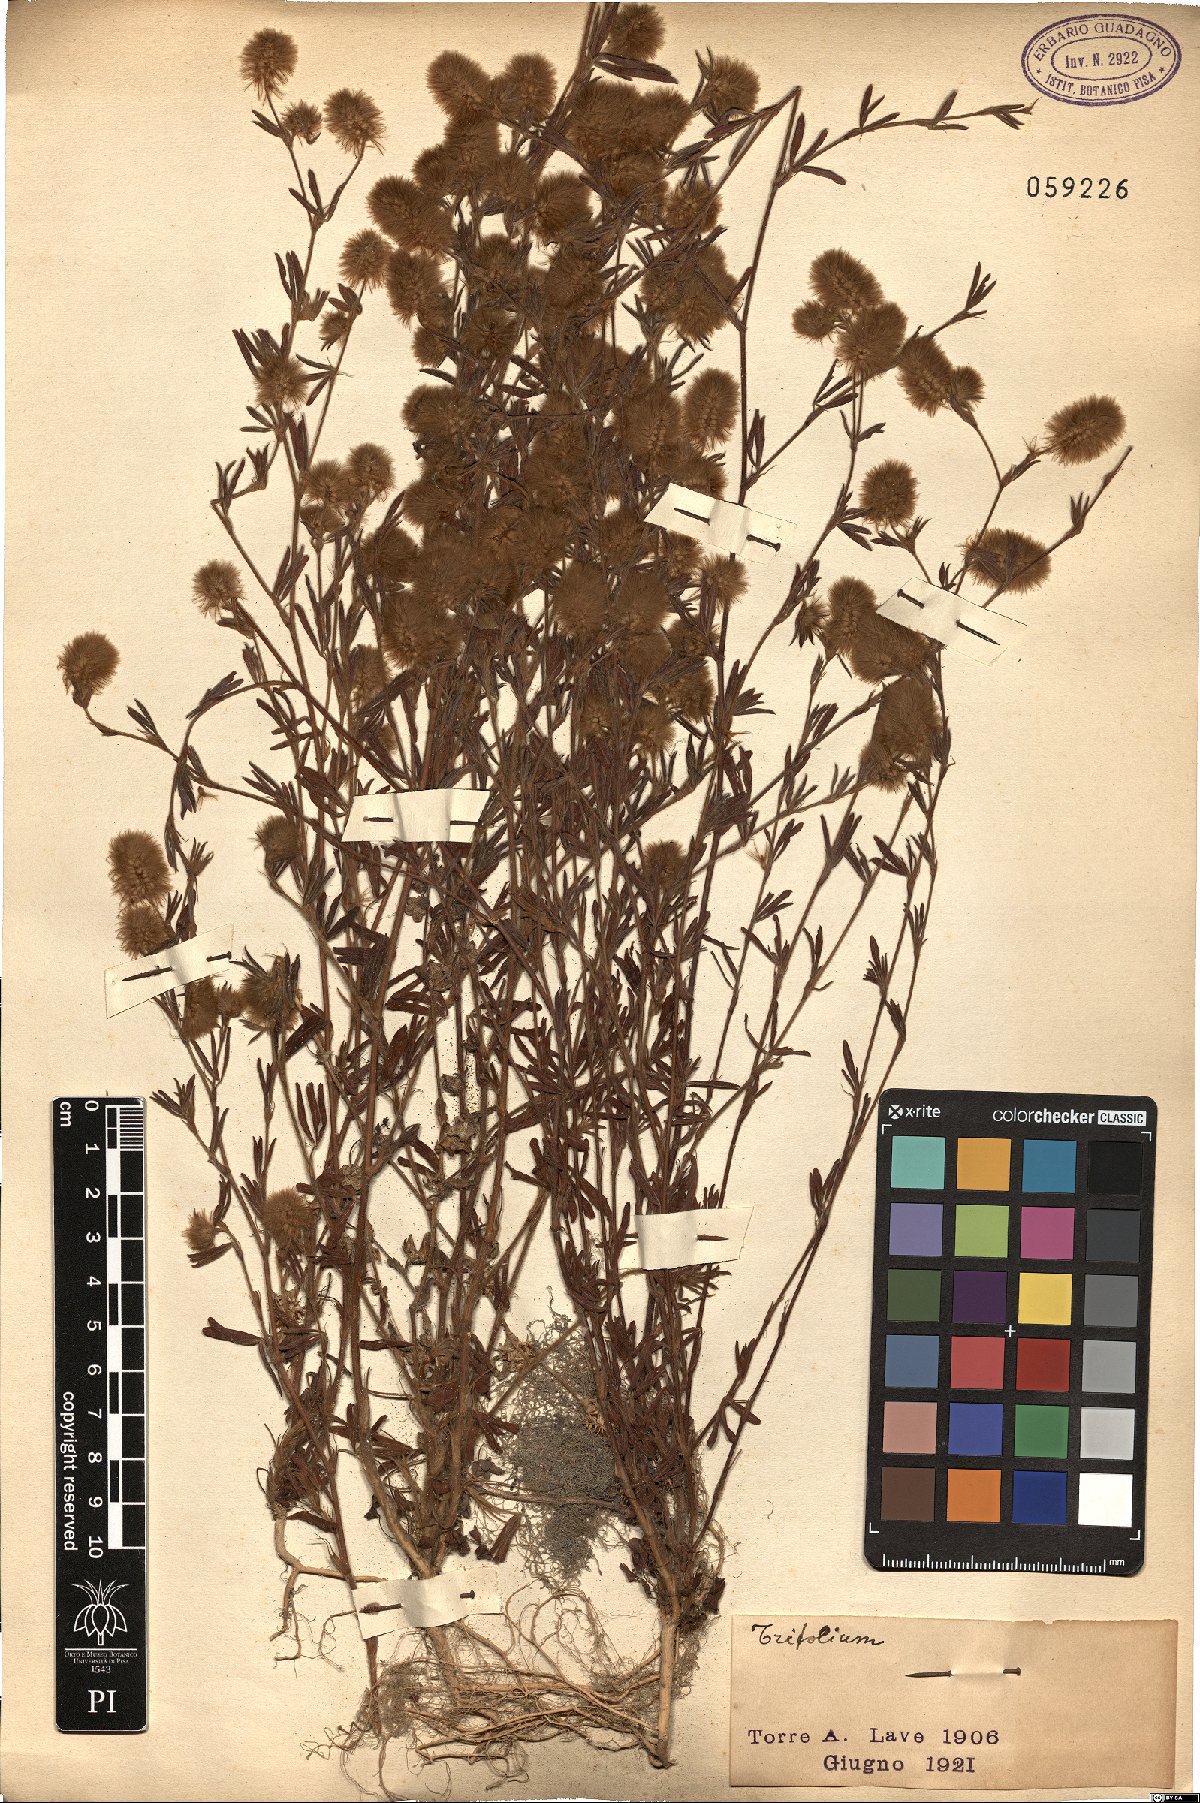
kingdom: Plantae
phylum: Tracheophyta
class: Magnoliopsida
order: Fabales
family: Fabaceae
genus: Trifolium
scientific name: Trifolium
